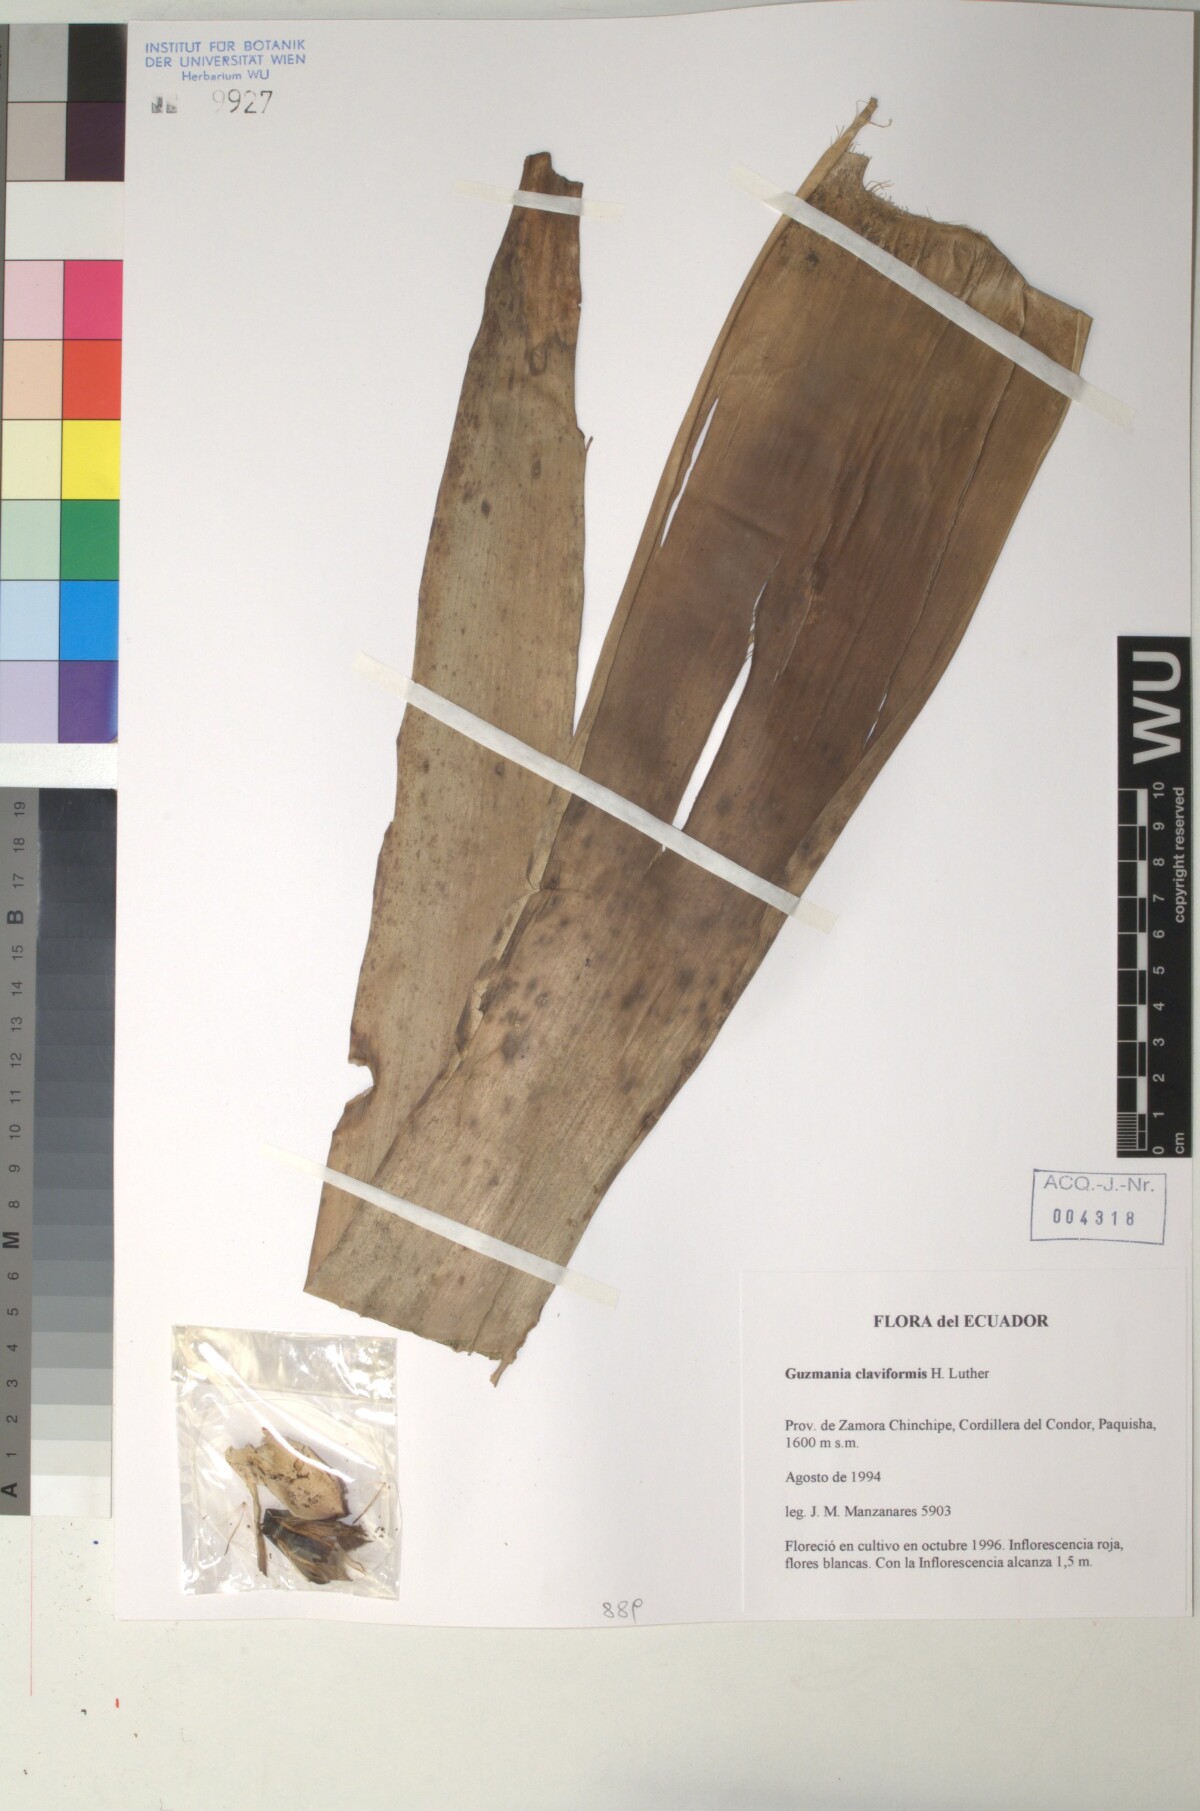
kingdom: Plantae
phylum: Tracheophyta
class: Liliopsida
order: Poales
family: Bromeliaceae
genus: Guzmania
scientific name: Guzmania claviformis
